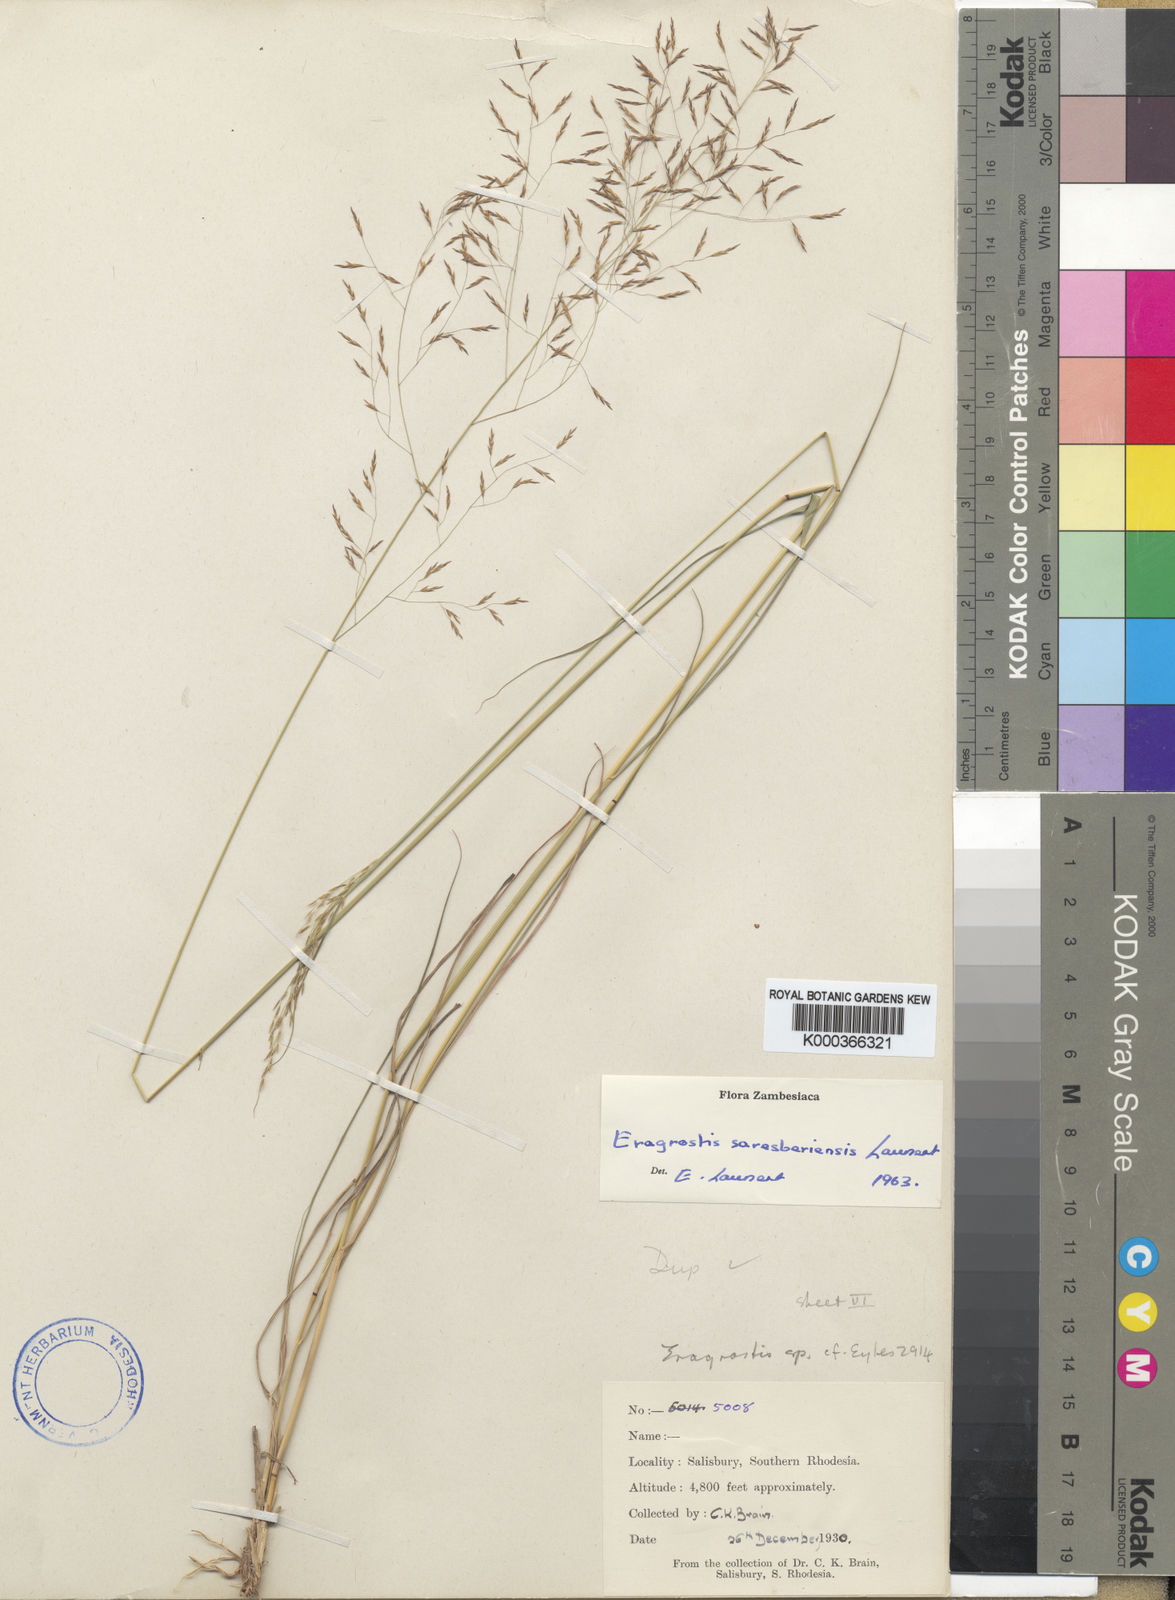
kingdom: Plantae
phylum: Tracheophyta
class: Liliopsida
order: Poales
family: Poaceae
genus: Eragrostis
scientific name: Eragrostis saresberiensis
